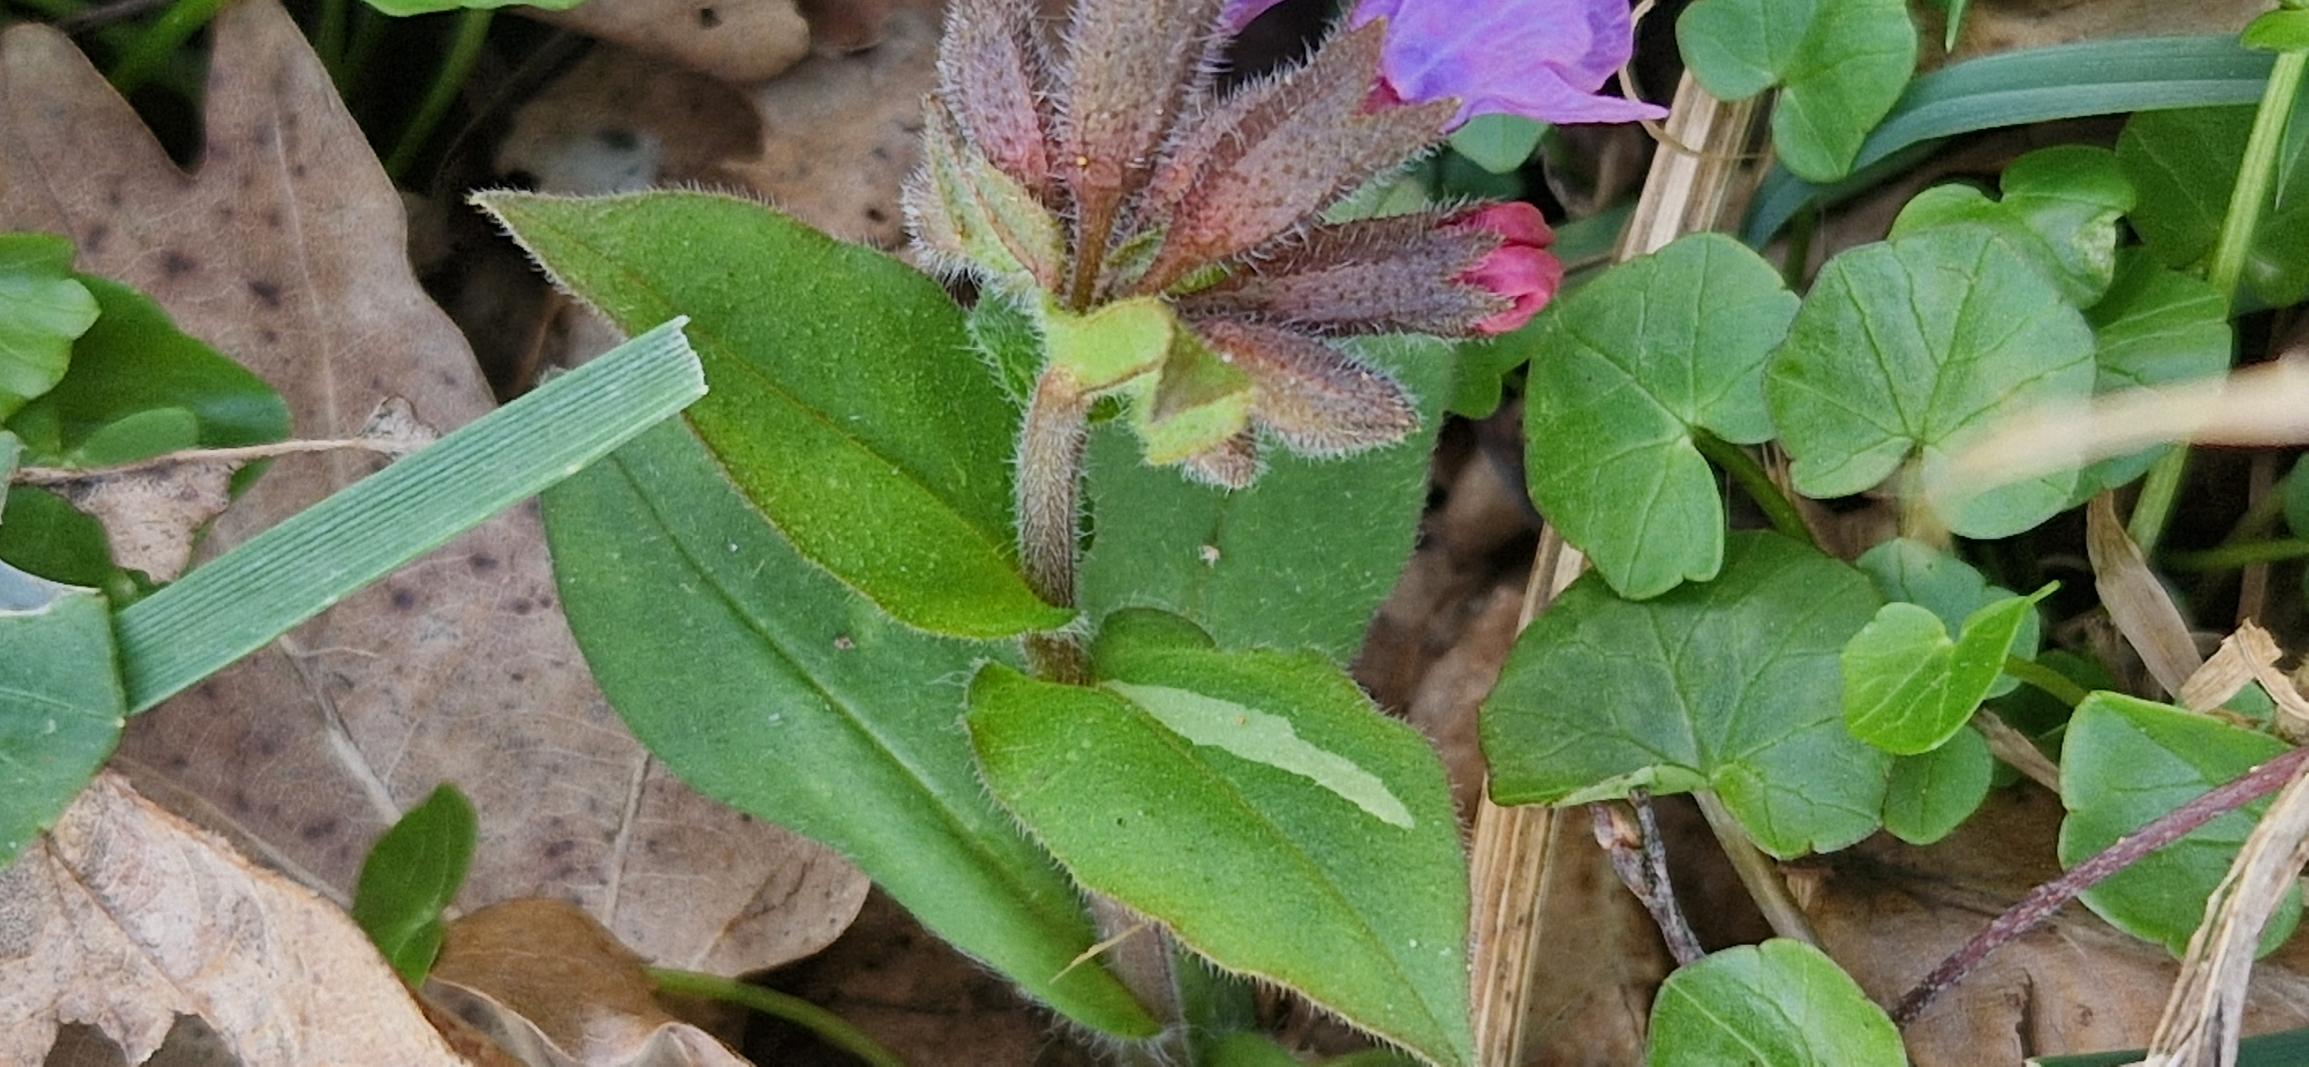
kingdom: Plantae
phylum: Tracheophyta
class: Magnoliopsida
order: Boraginales
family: Boraginaceae
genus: Pulmonaria
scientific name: Pulmonaria obscura
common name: Almindelig lungeurt
